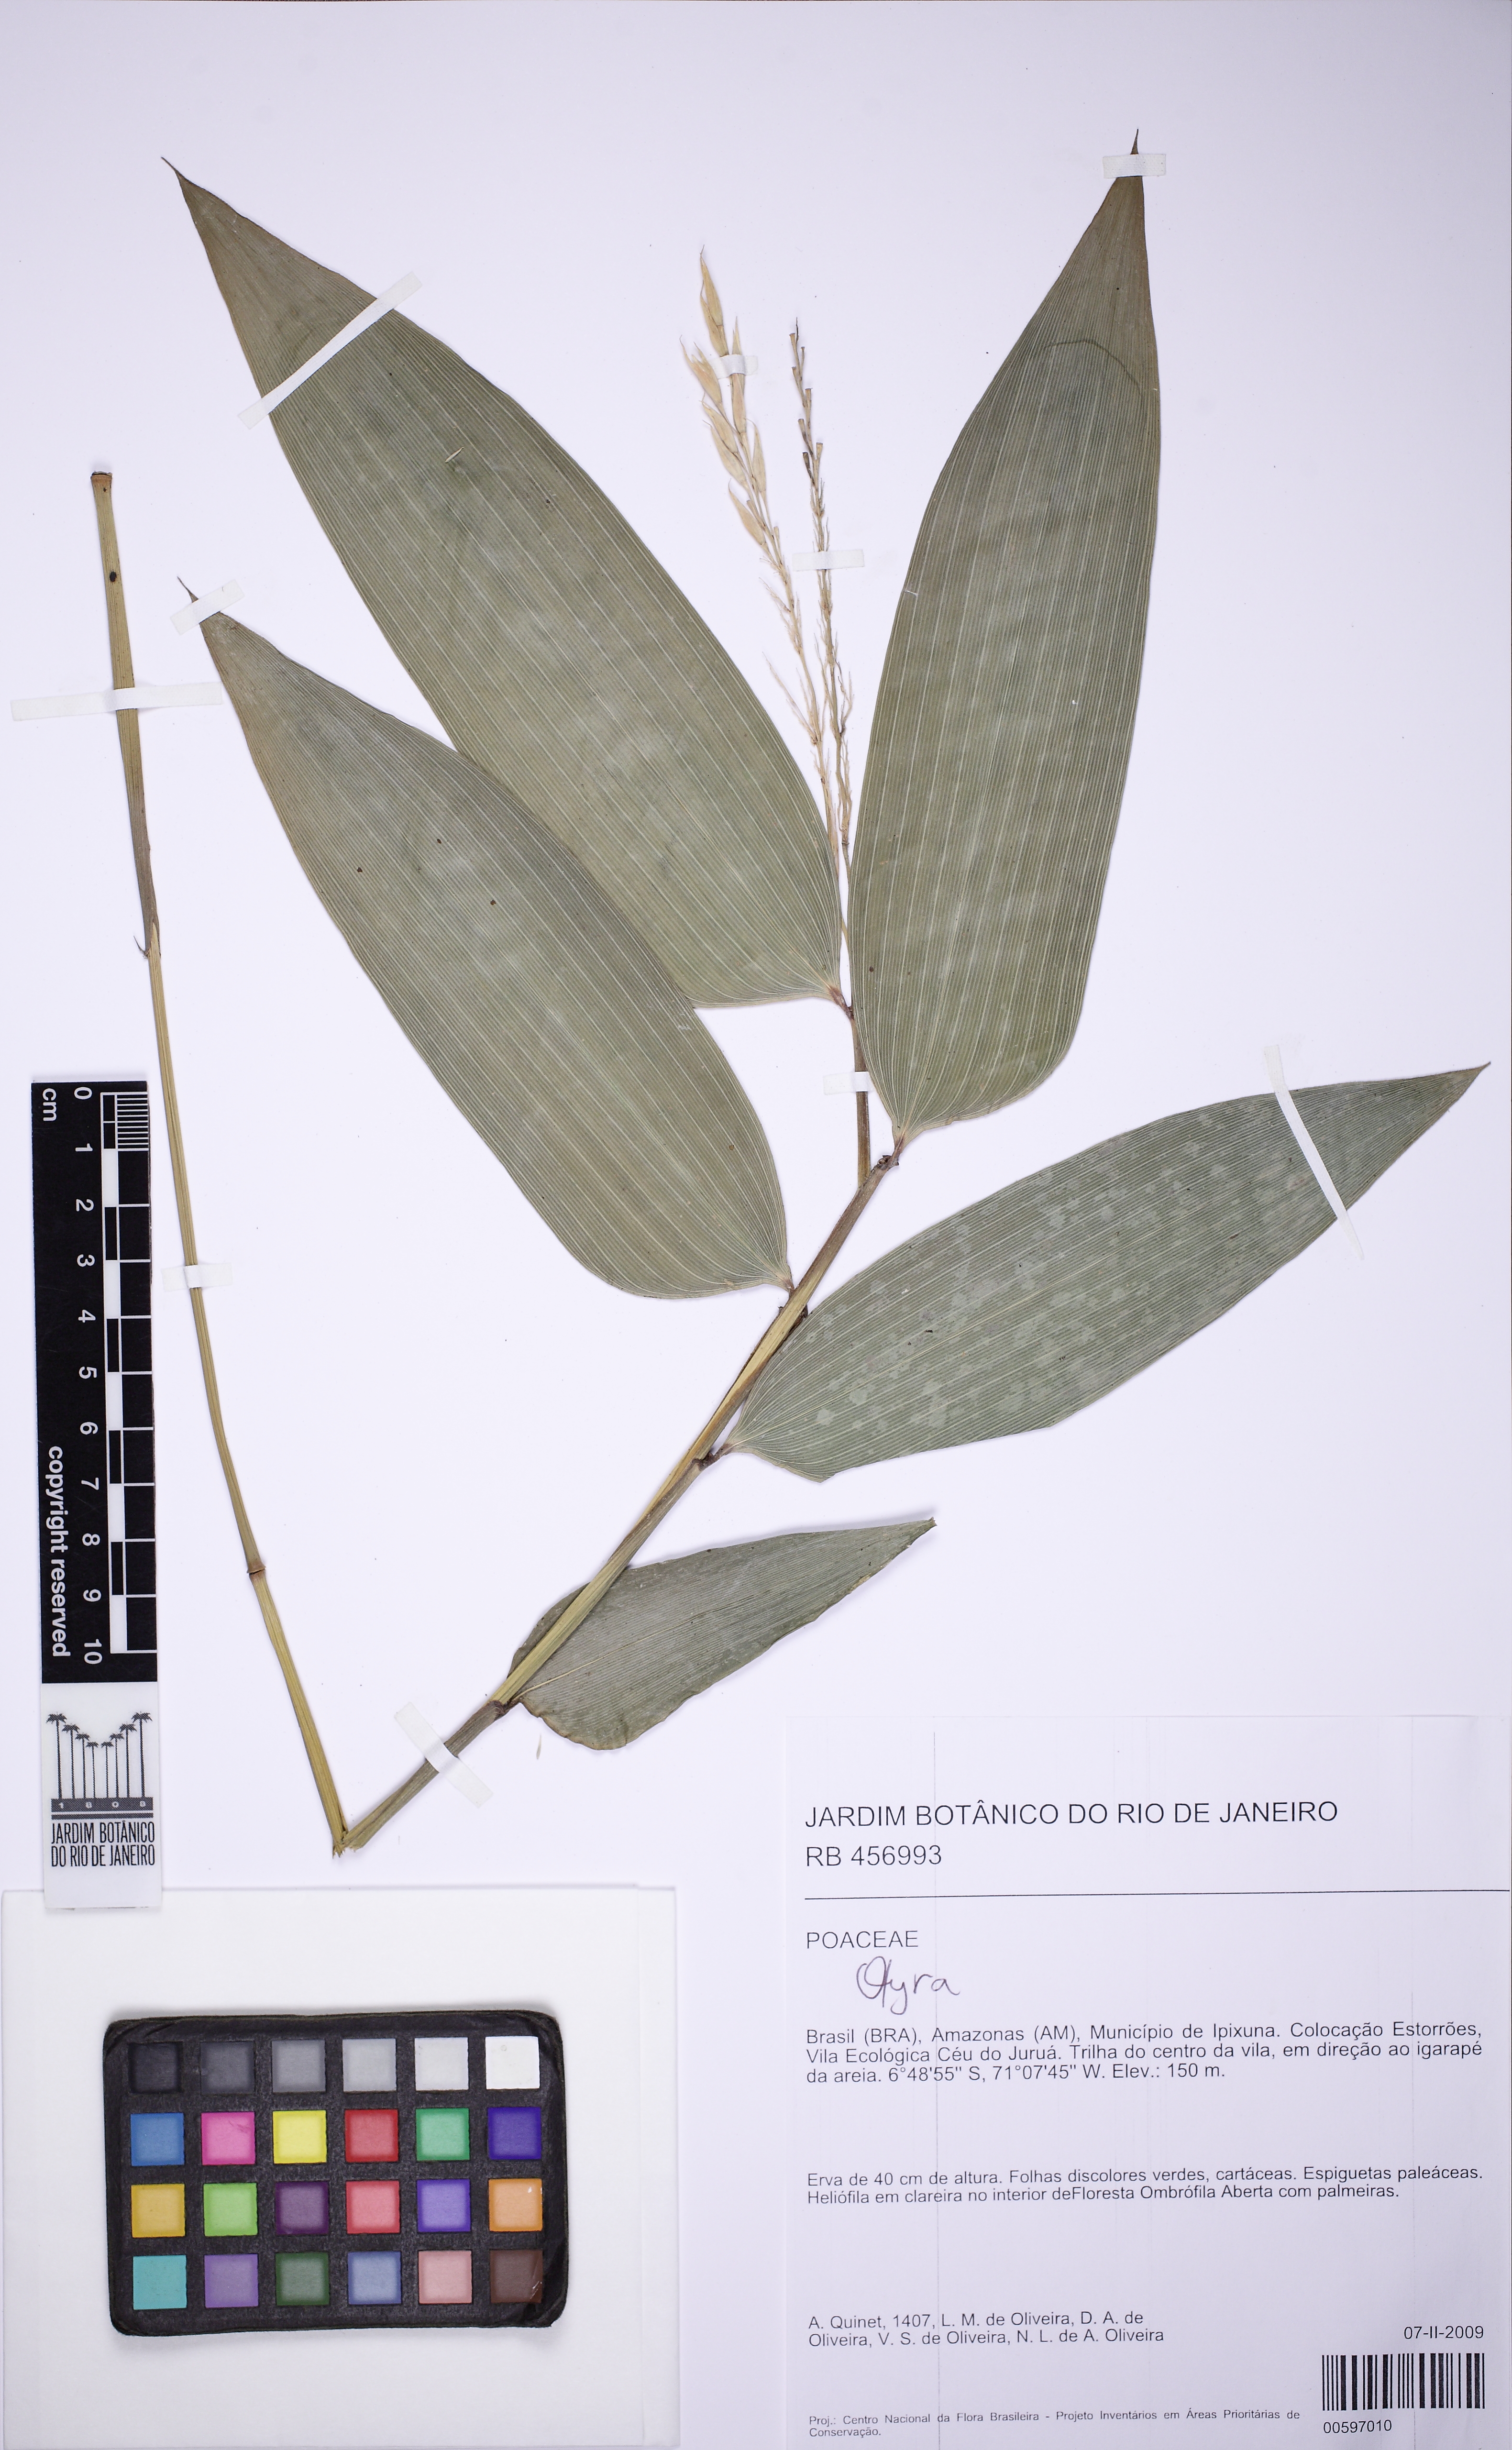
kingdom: Plantae
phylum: Tracheophyta
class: Liliopsida
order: Poales
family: Poaceae
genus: Olyra
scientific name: Olyra
